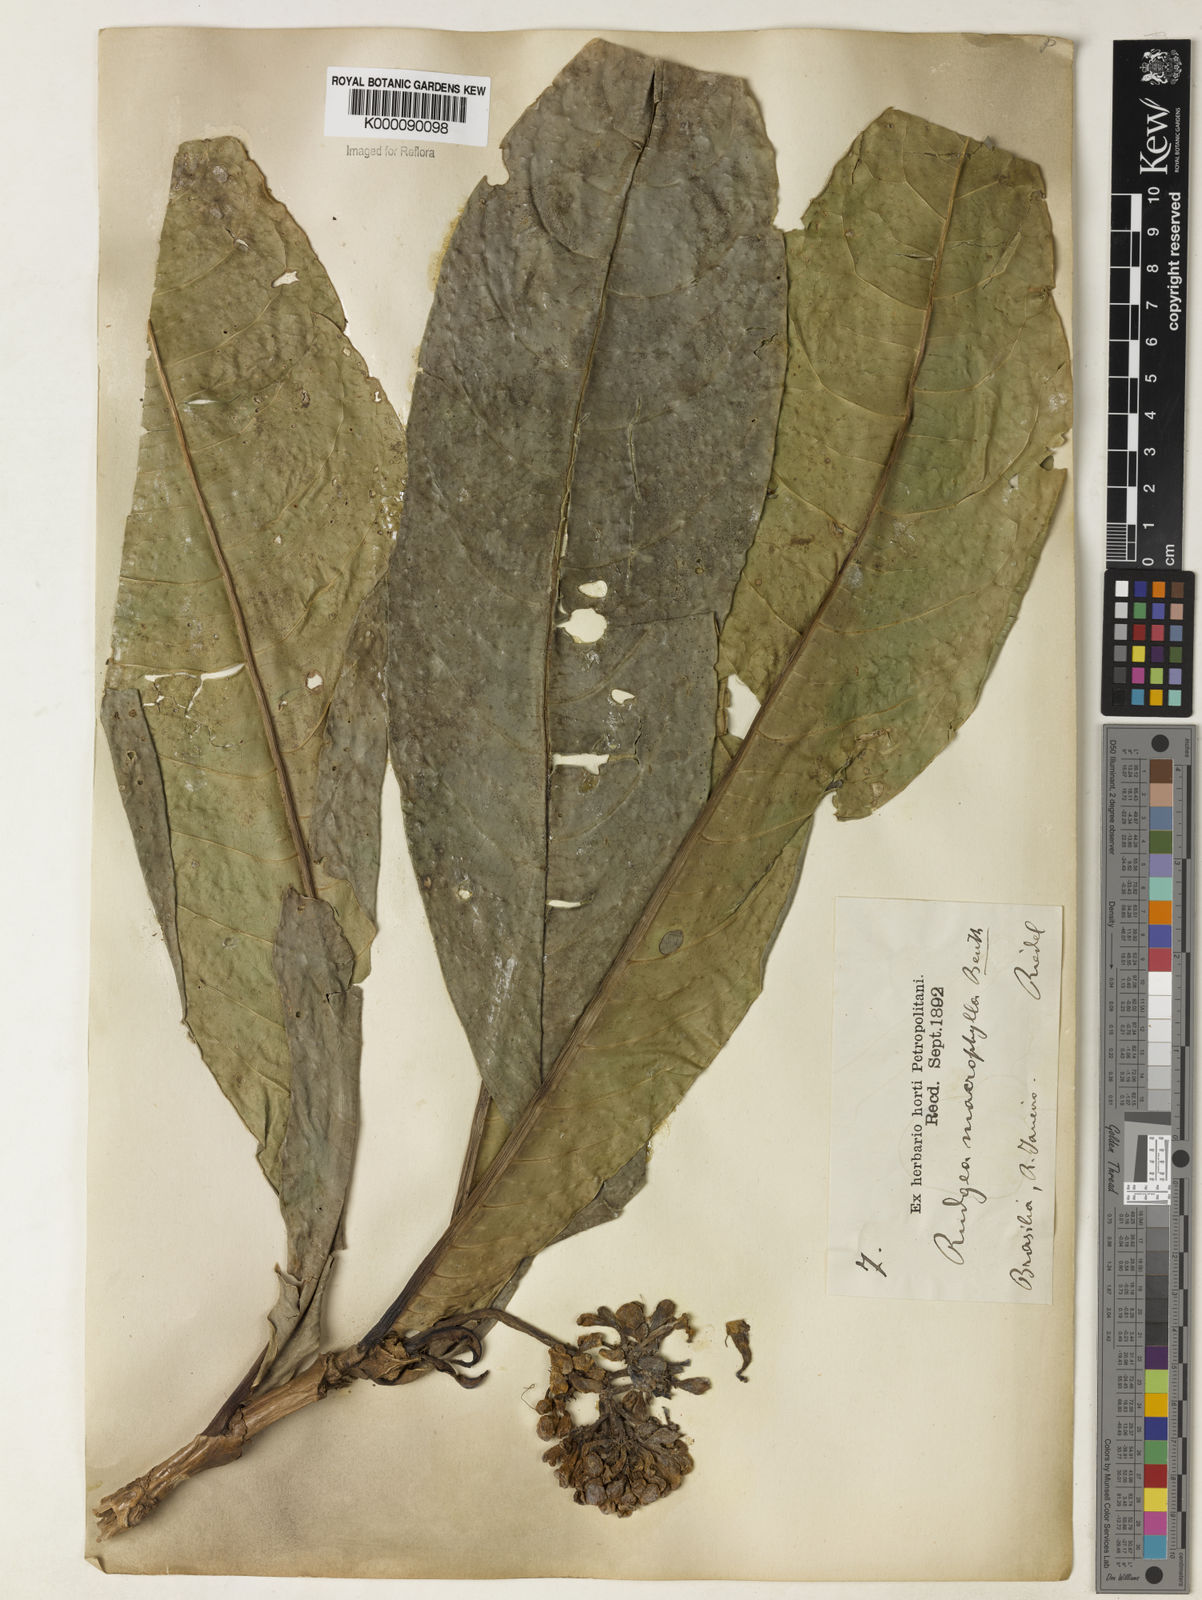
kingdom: Plantae
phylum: Tracheophyta
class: Magnoliopsida
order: Gentianales
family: Rubiaceae
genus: Rudgea
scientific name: Rudgea macrophylla
